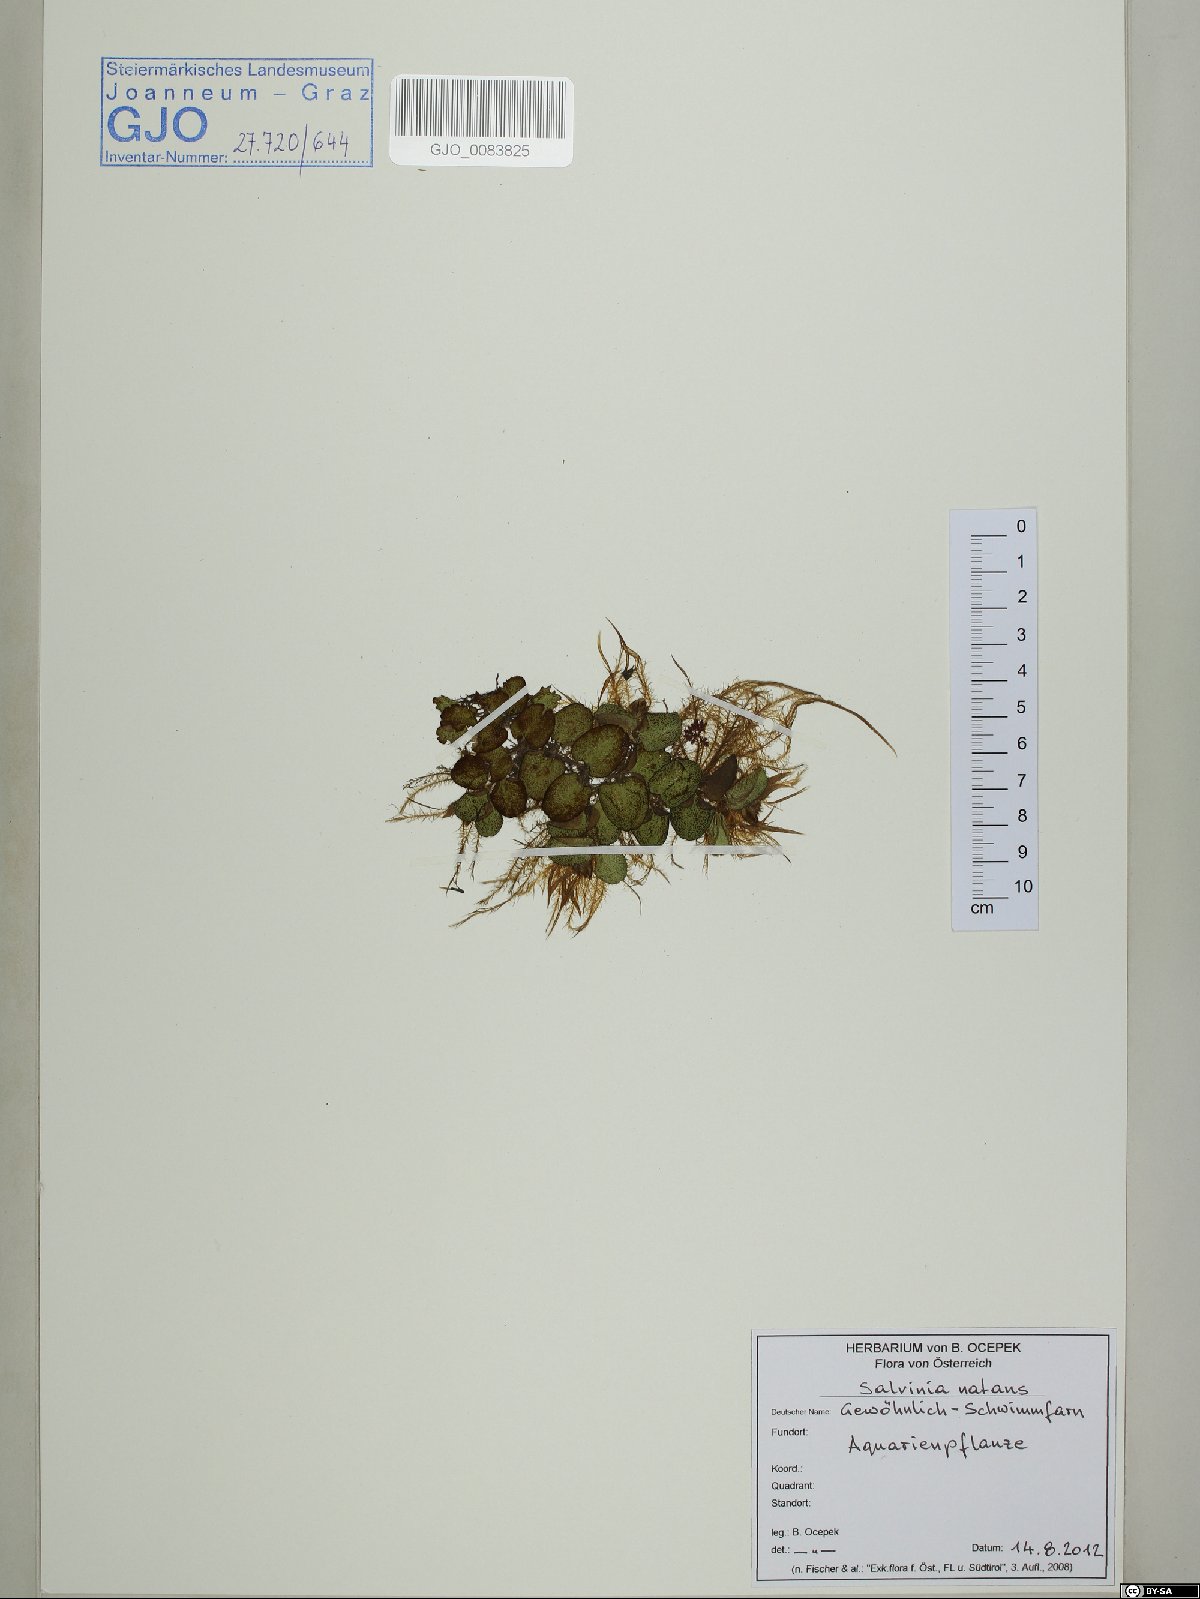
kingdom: Plantae
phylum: Tracheophyta
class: Polypodiopsida
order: Salviniales
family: Salviniaceae
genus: Salvinia
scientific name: Salvinia natans
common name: Floating fern
